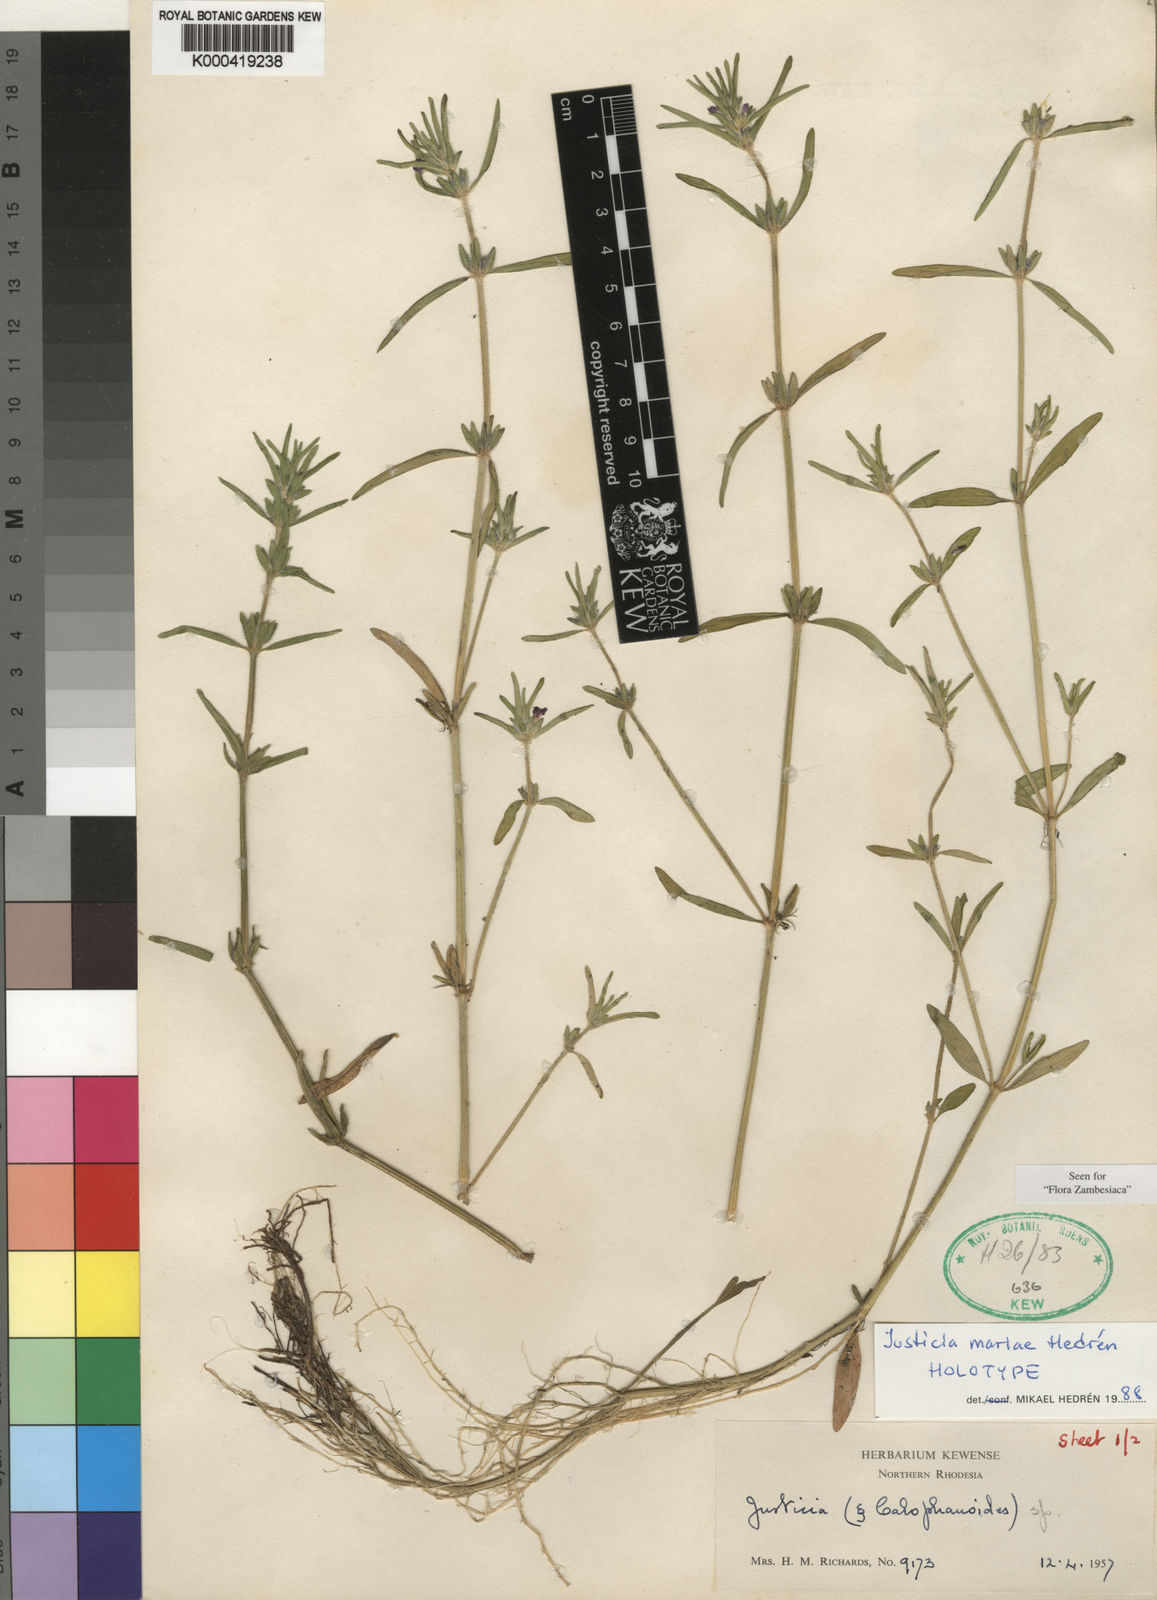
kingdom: Plantae
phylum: Tracheophyta
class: Magnoliopsida
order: Lamiales
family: Acanthaceae
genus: Justicia
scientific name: Justicia
